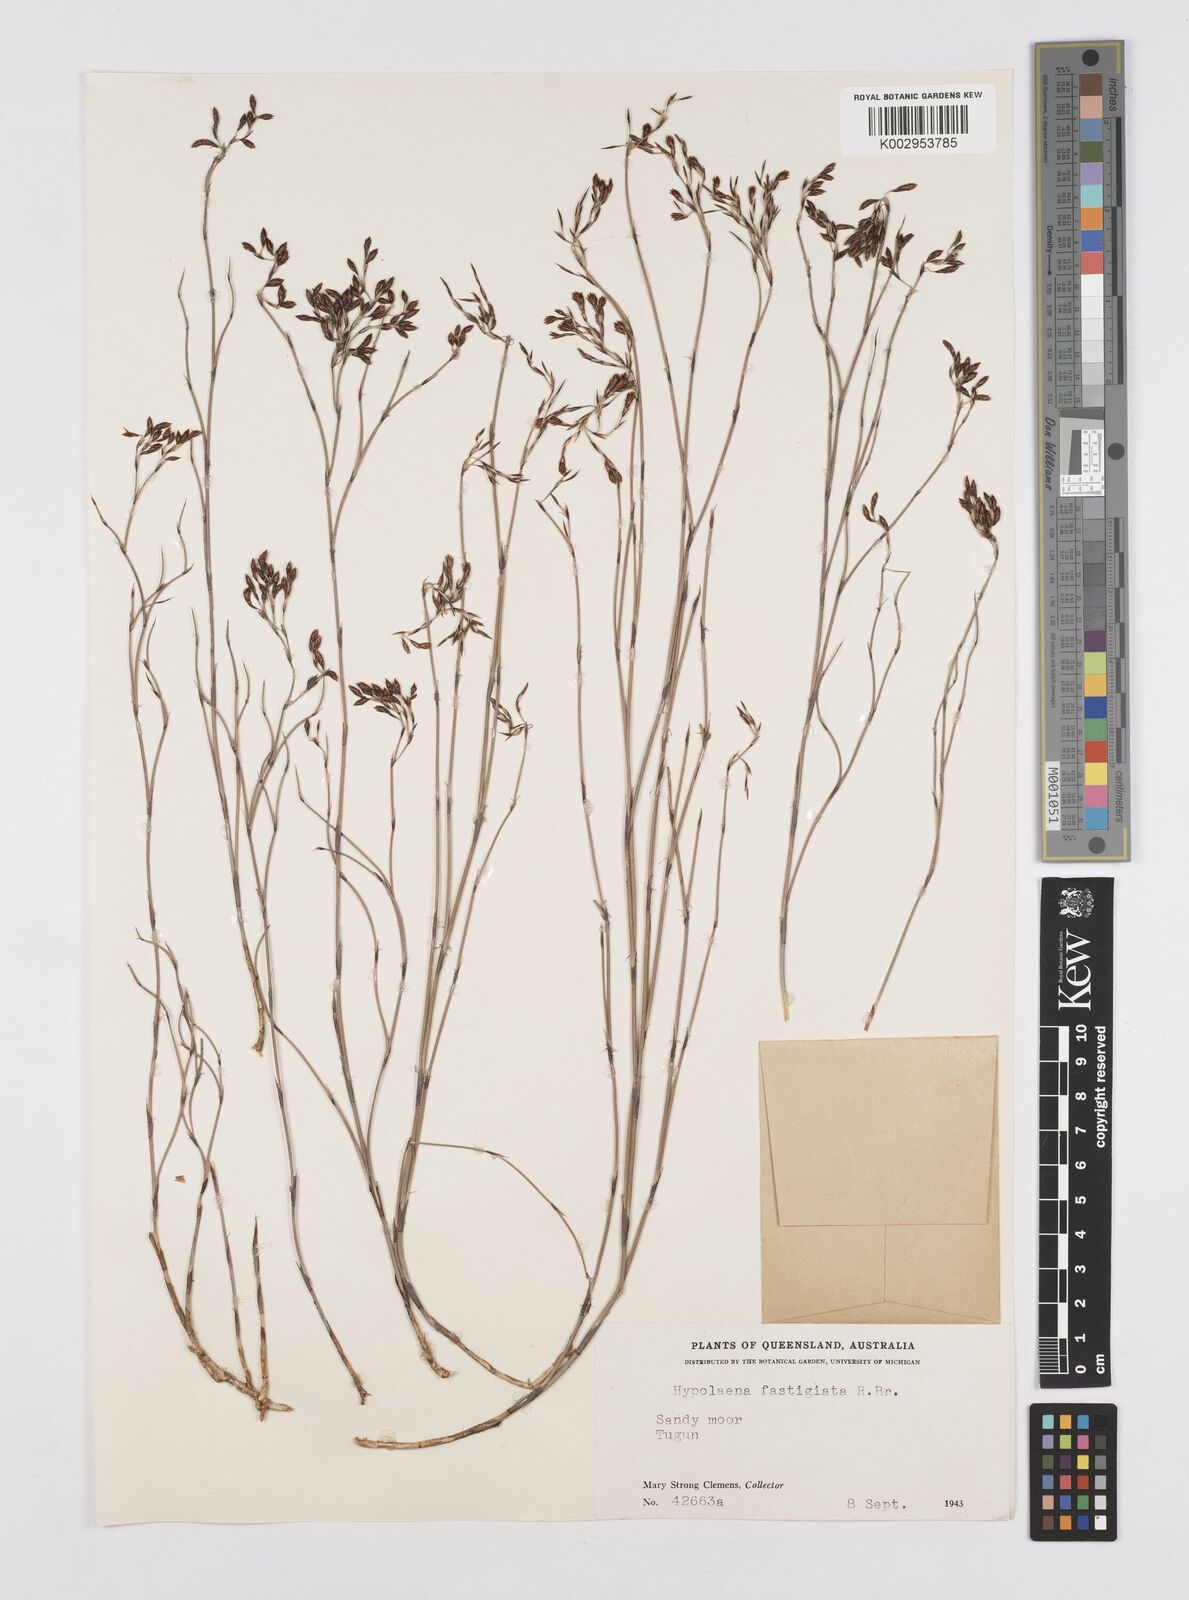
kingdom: Plantae
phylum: Tracheophyta
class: Liliopsida
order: Poales
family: Restionaceae
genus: Hypolaena
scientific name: Hypolaena fastigiata
